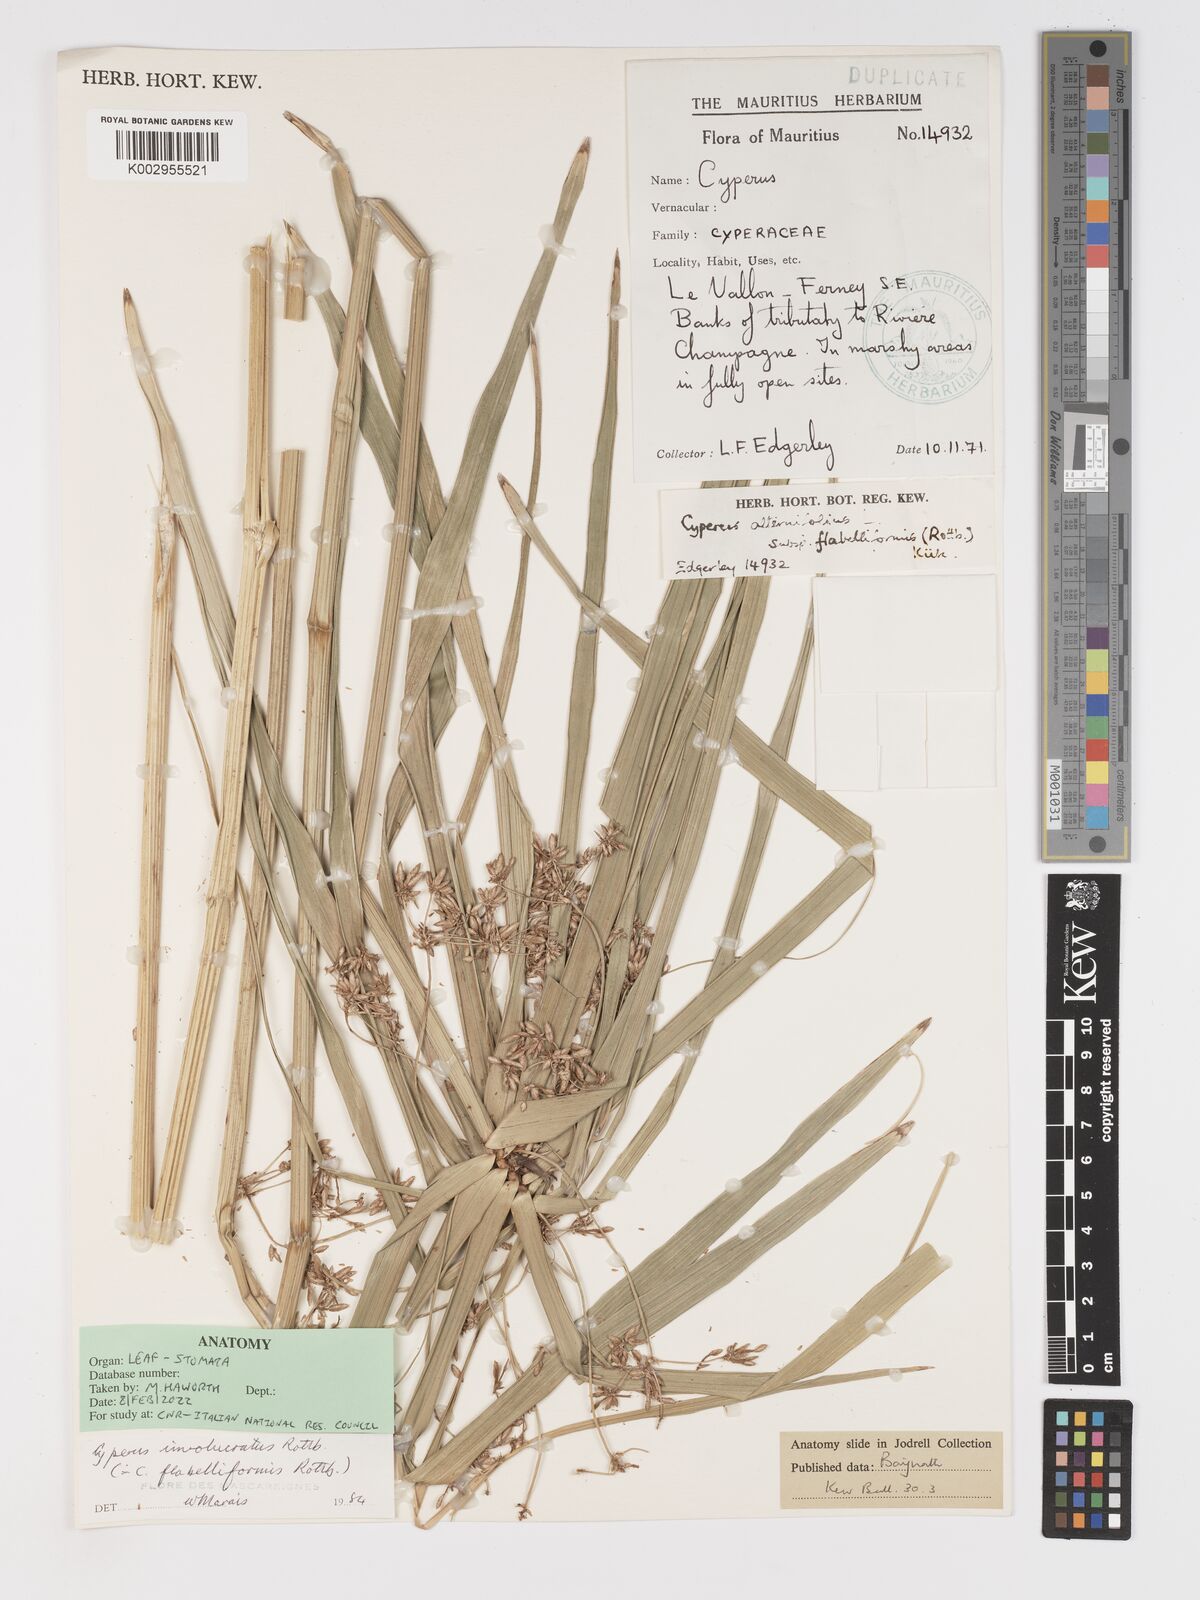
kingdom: Plantae
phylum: Tracheophyta
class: Liliopsida
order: Poales
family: Cyperaceae
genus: Cyperus
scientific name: Cyperus alternifolius
